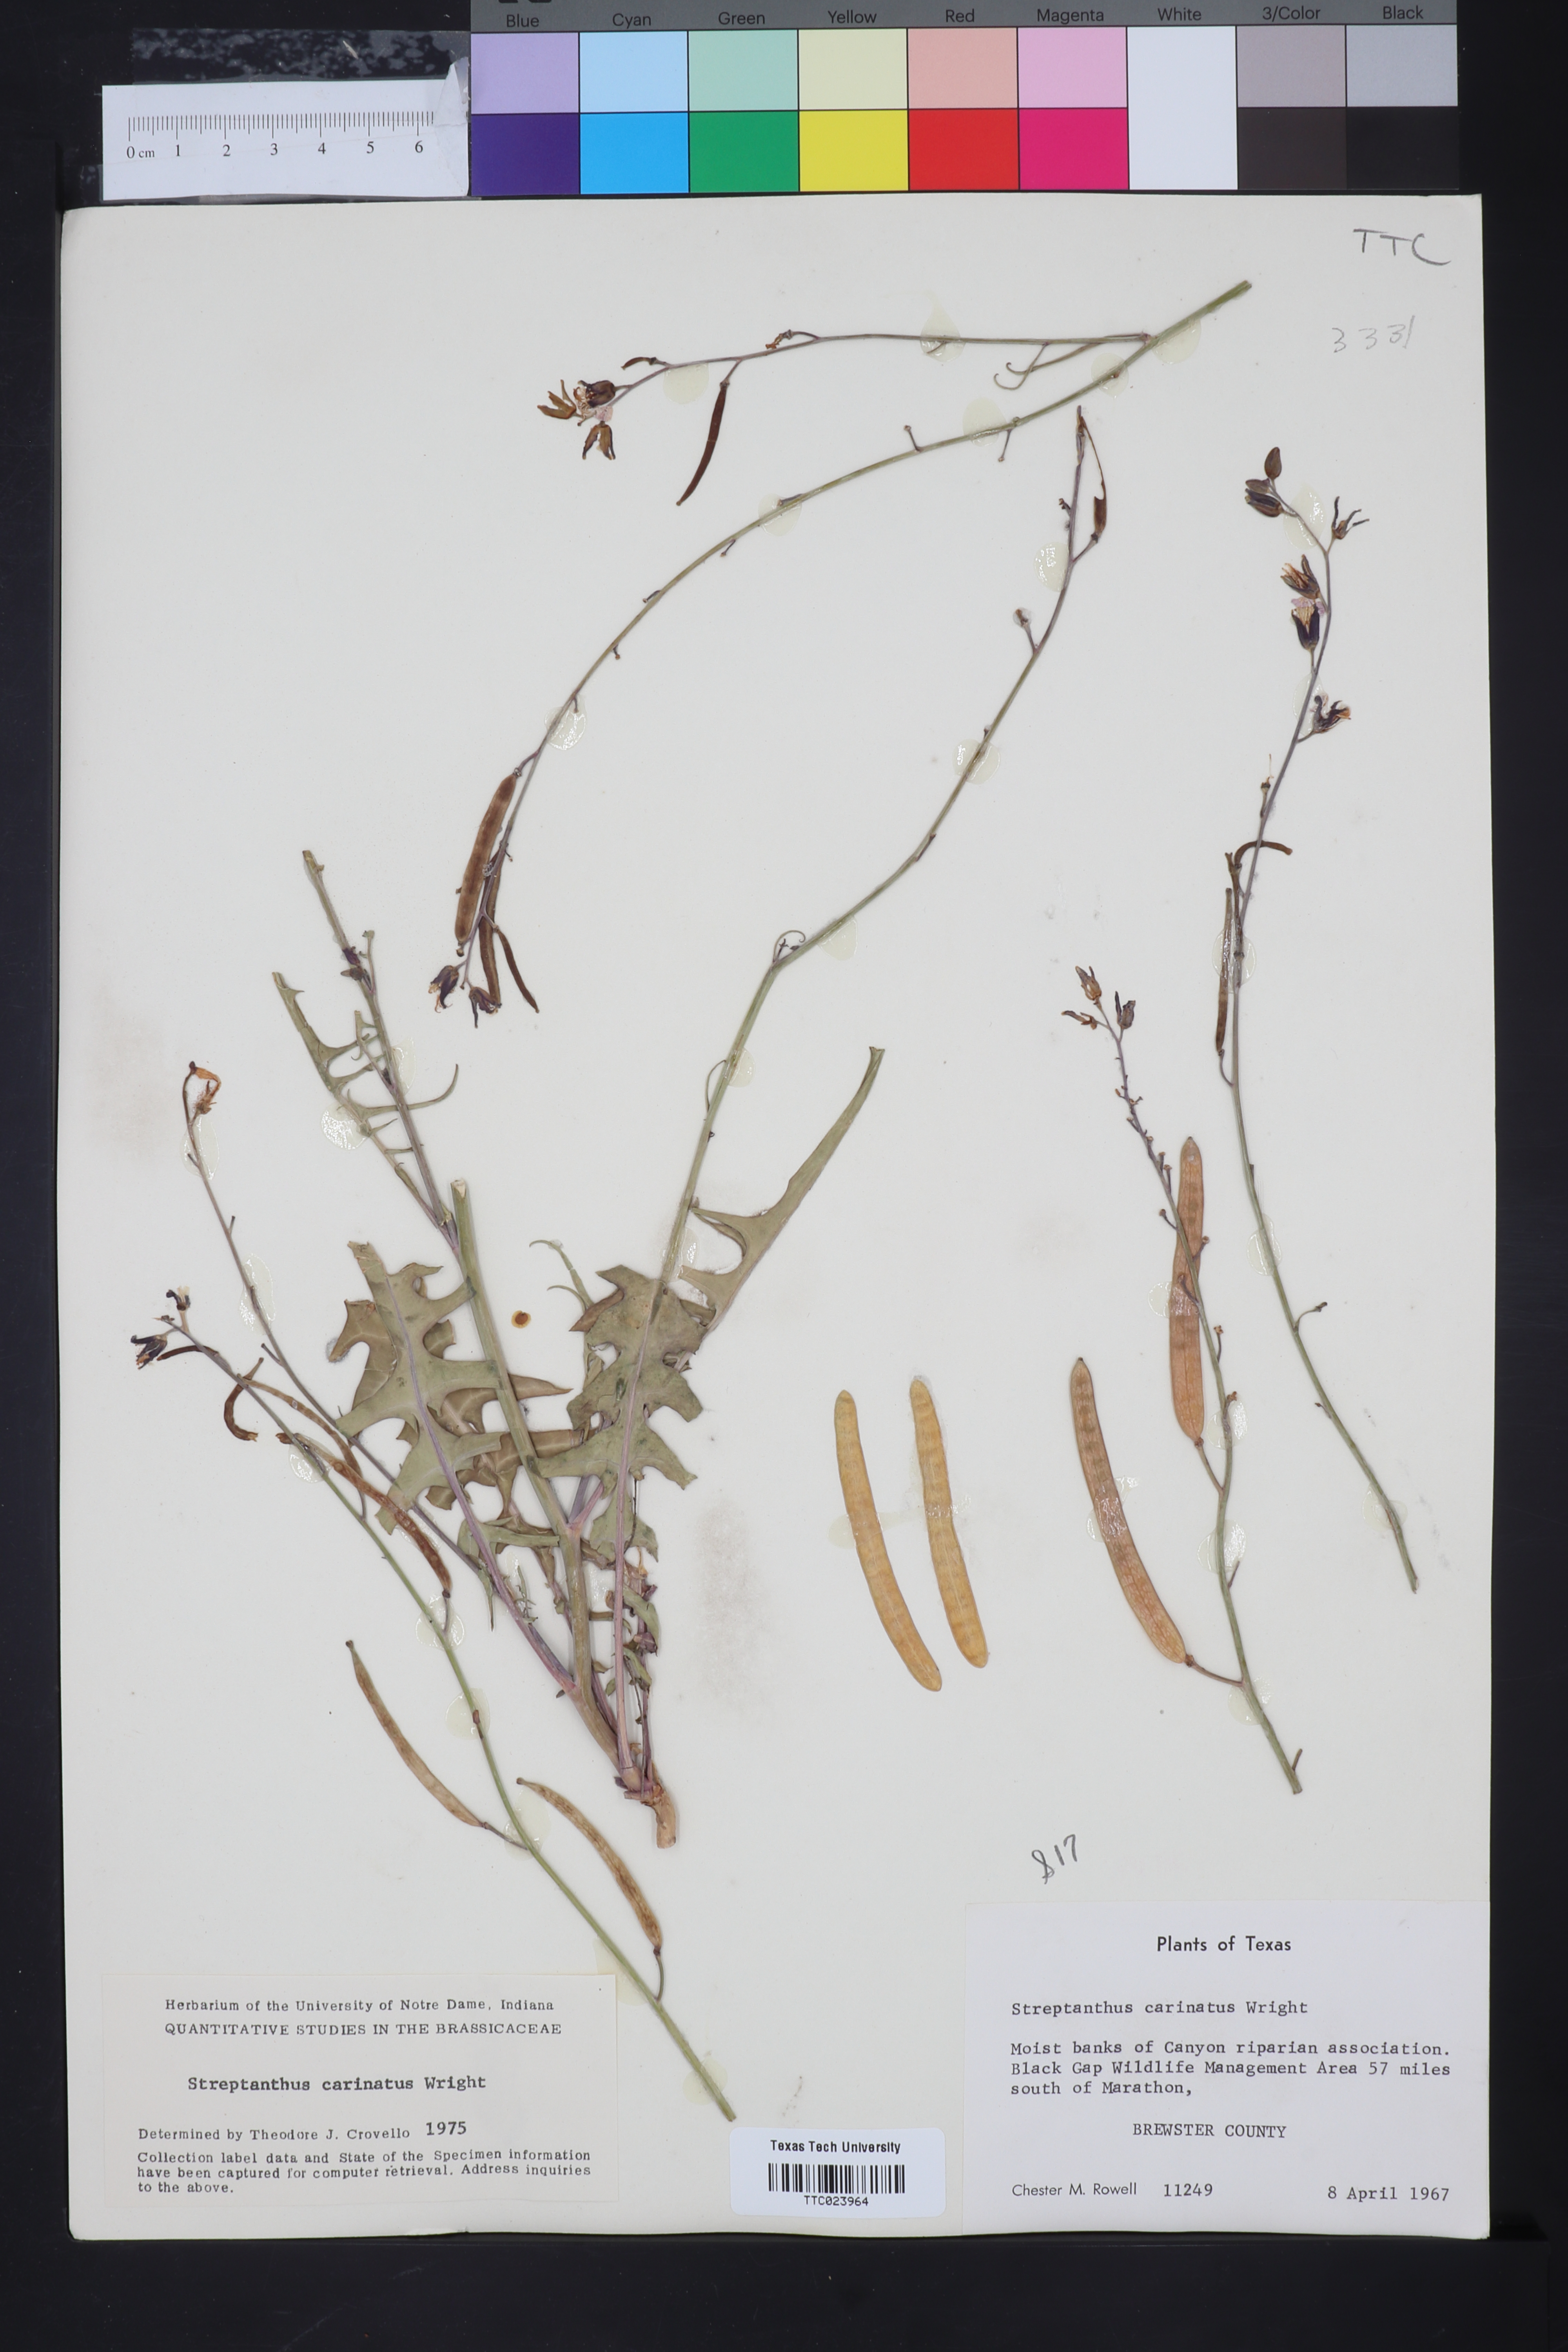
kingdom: Plantae
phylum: Tracheophyta
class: Magnoliopsida
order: Brassicales
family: Brassicaceae
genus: Streptanthus
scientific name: Streptanthus carinatus
